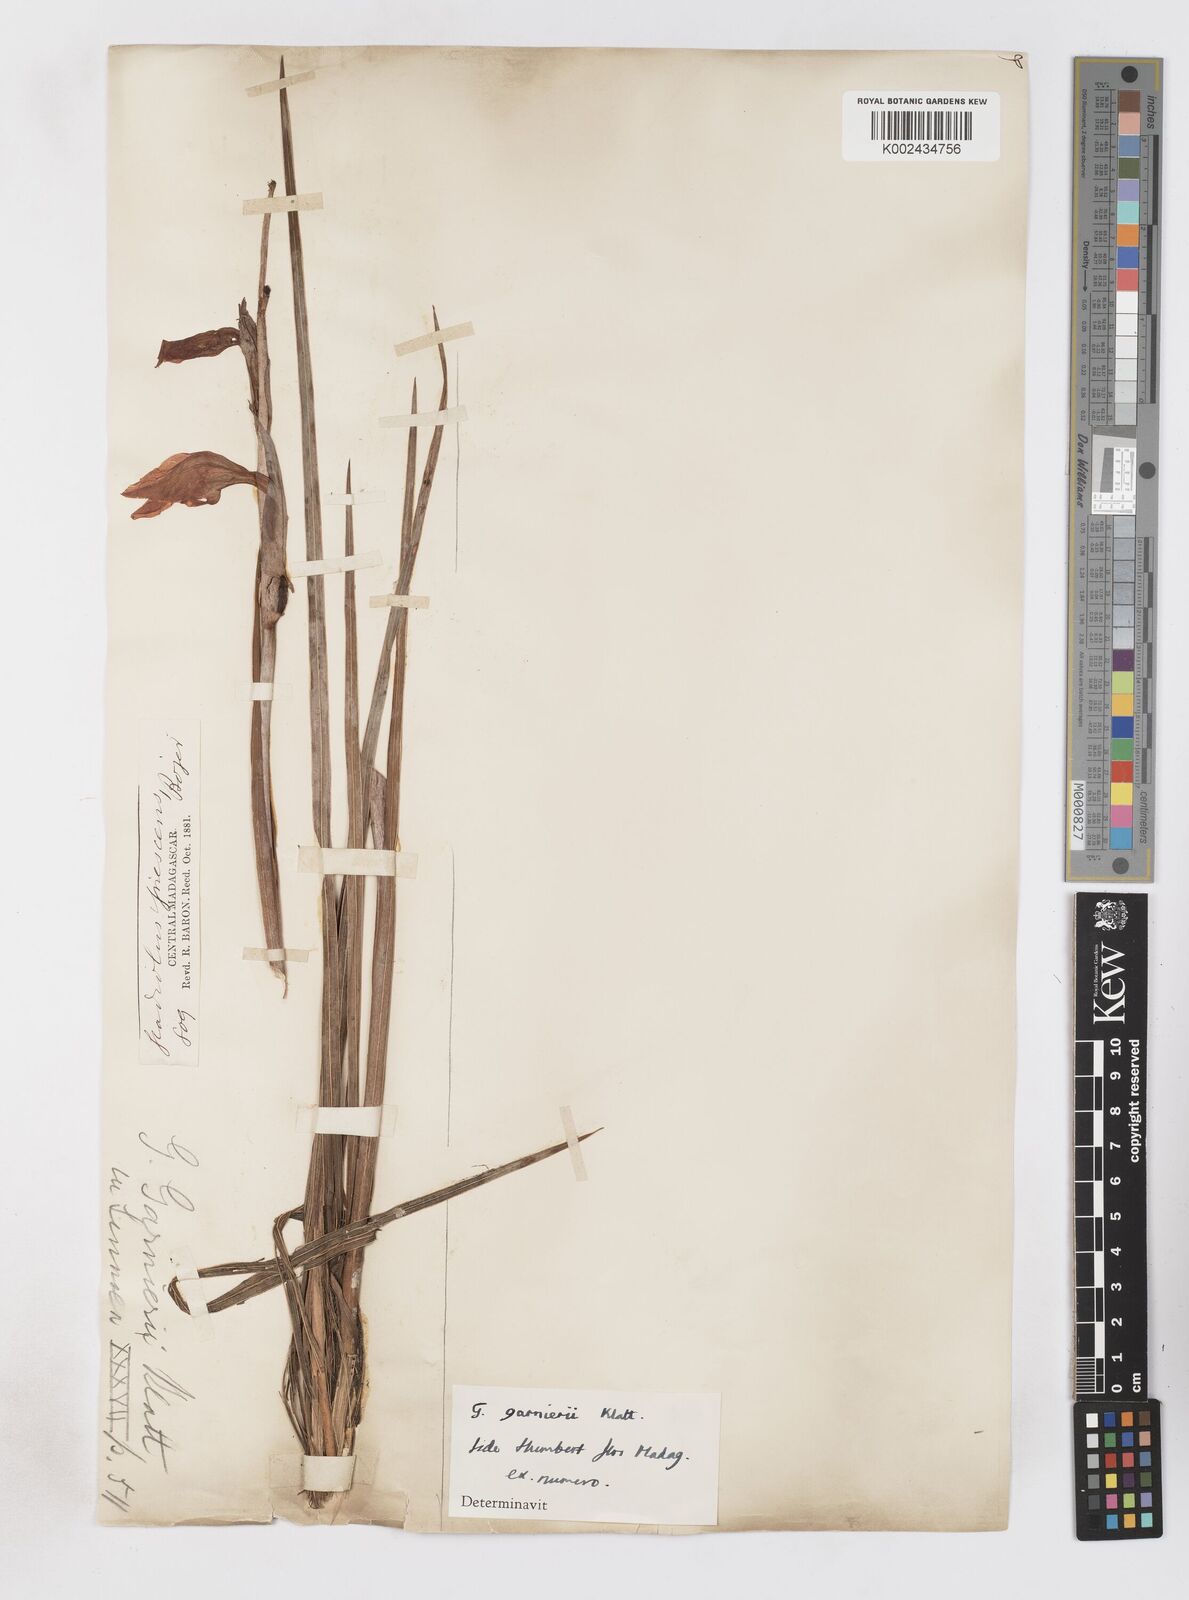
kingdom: Plantae
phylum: Tracheophyta
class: Liliopsida
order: Asparagales
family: Iridaceae
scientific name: Iridaceae
